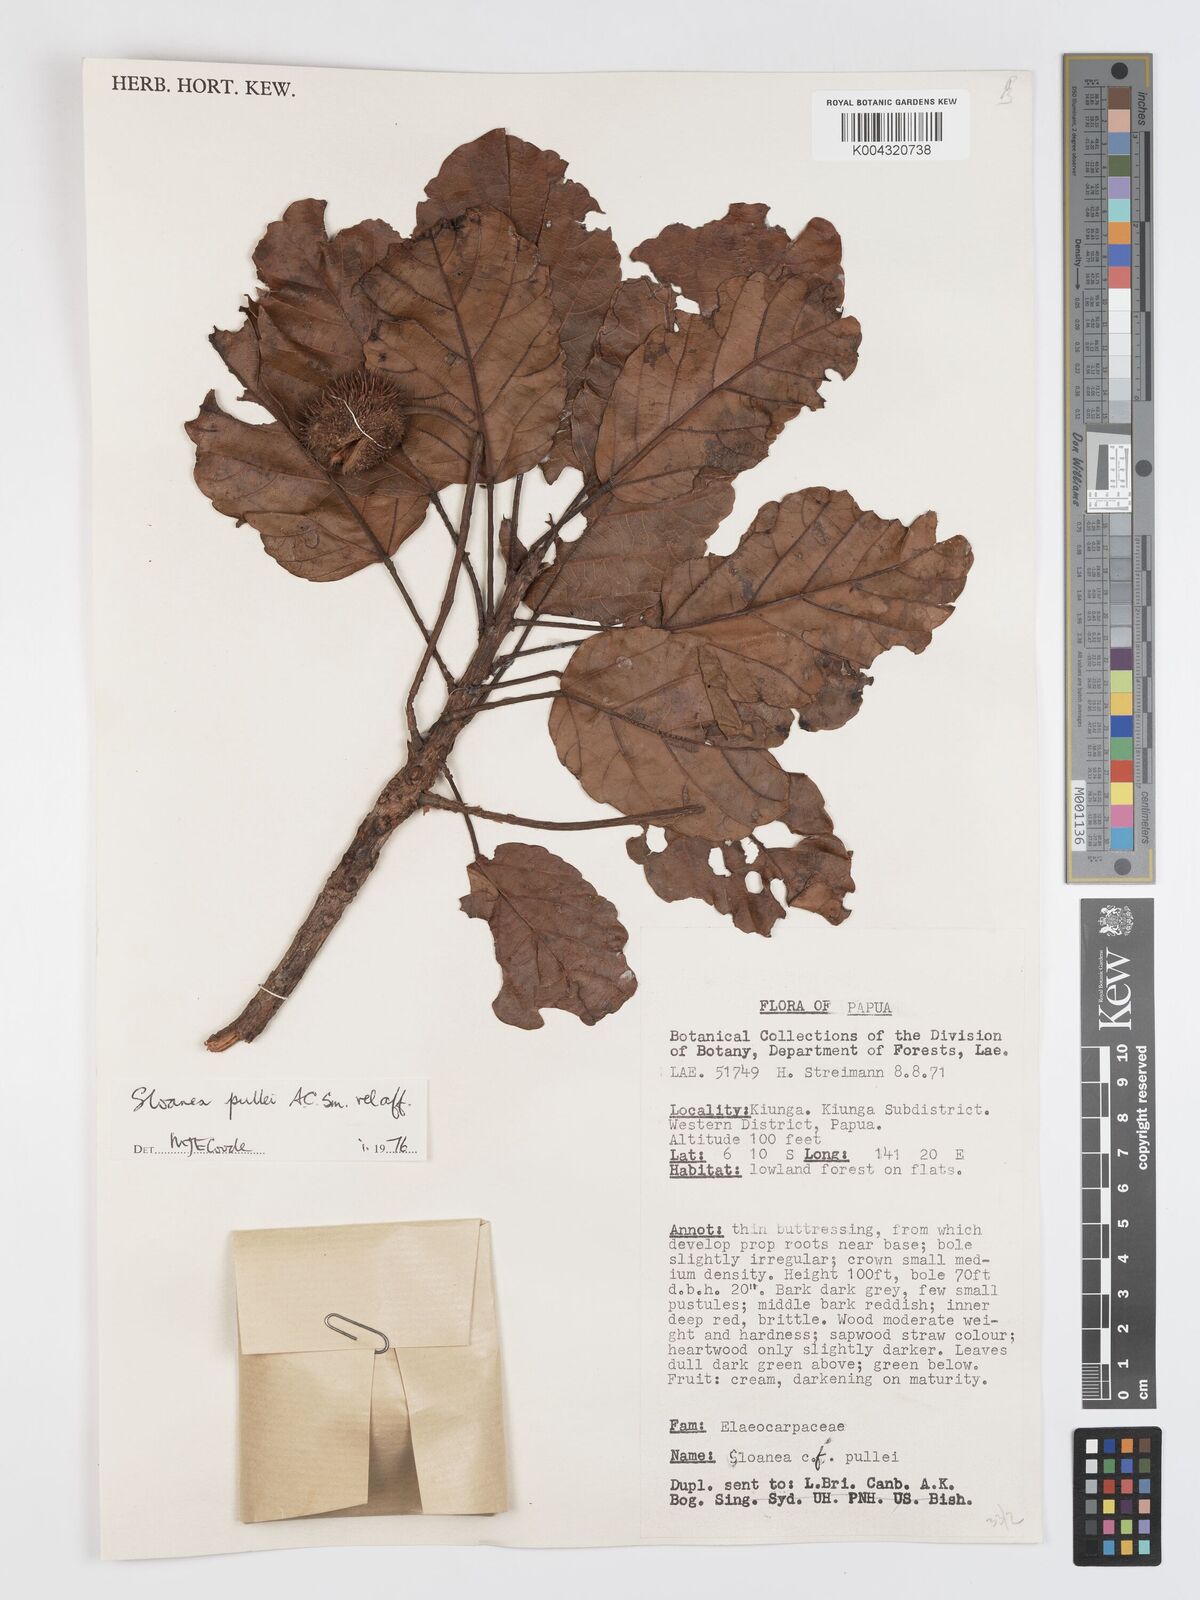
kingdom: Plantae
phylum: Tracheophyta
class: Magnoliopsida
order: Oxalidales
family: Elaeocarpaceae
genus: Sloanea
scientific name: Sloanea pullei
